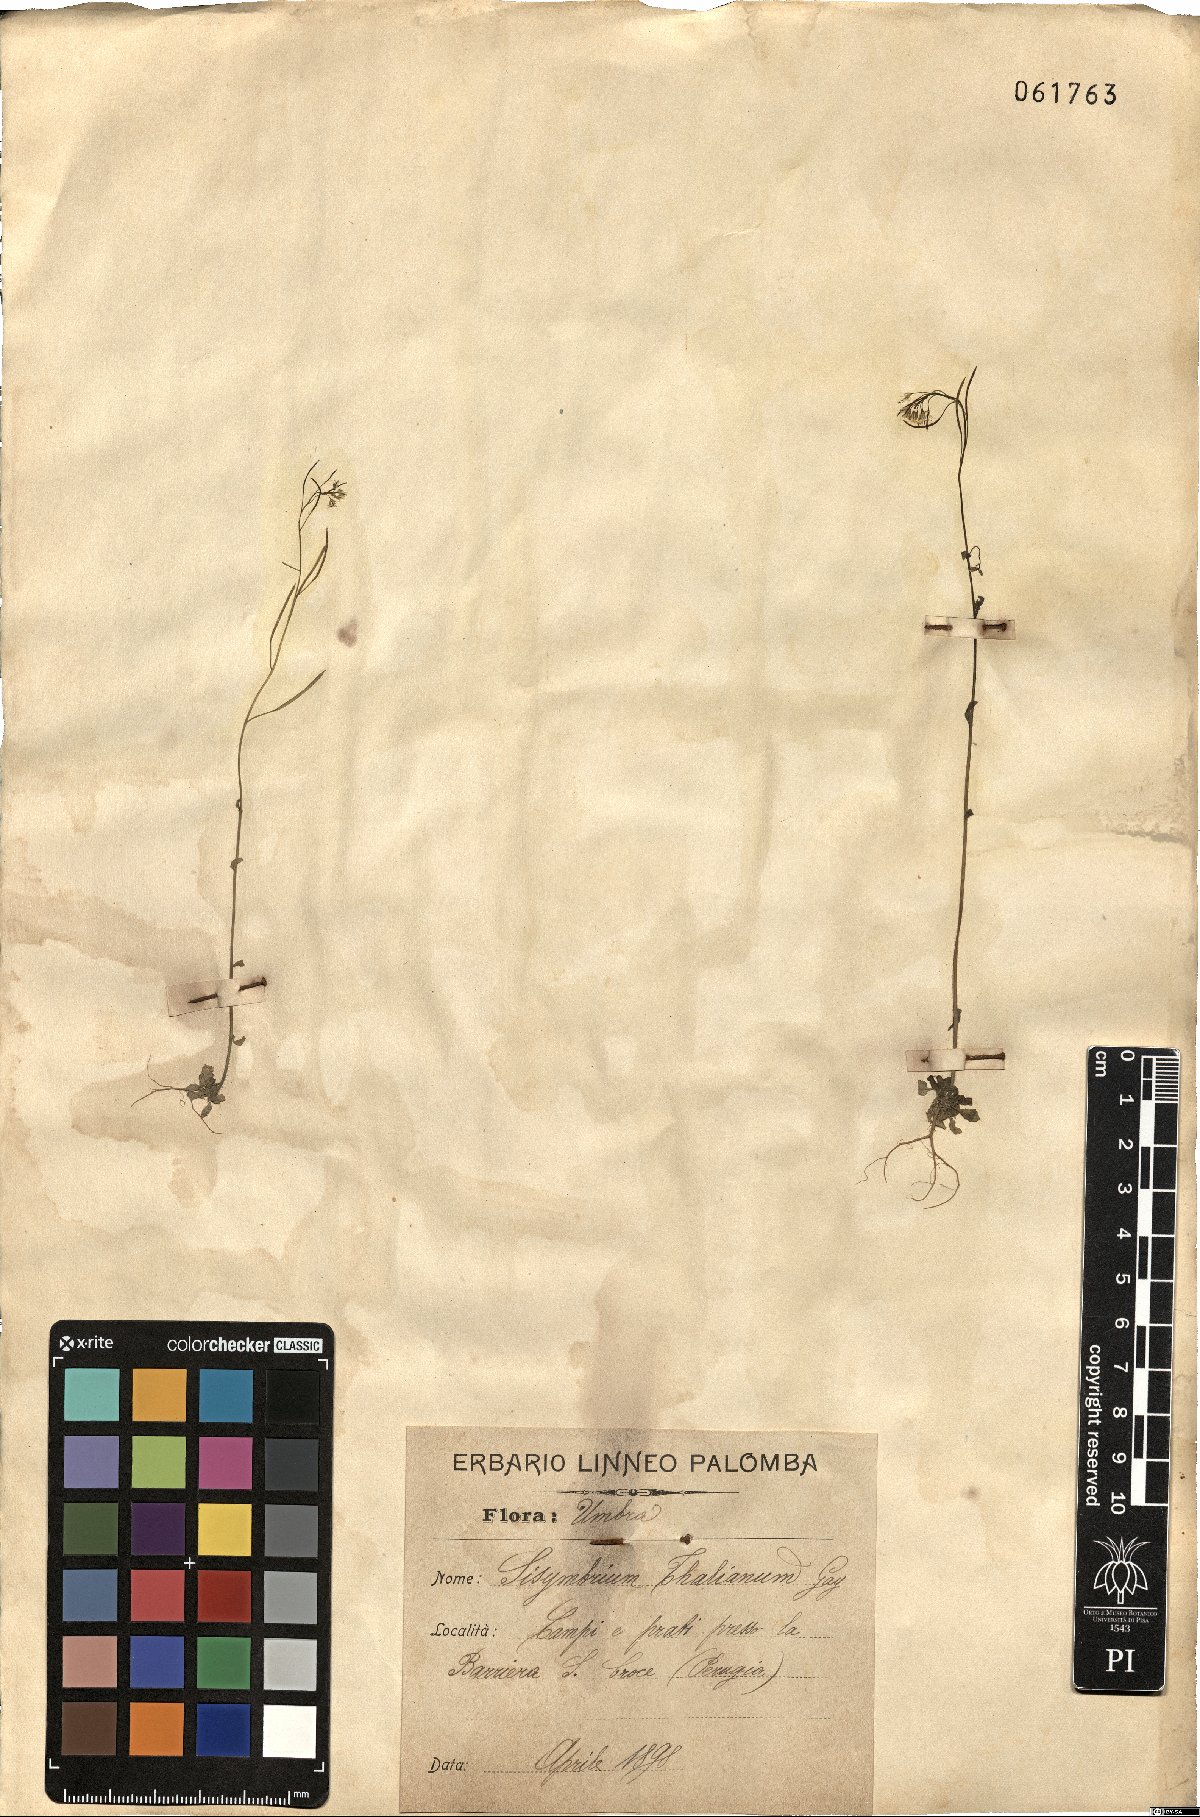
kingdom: Plantae
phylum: Tracheophyta
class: Magnoliopsida
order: Brassicales
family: Brassicaceae
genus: Arabidopsis
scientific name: Arabidopsis thaliana
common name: Thale cress
